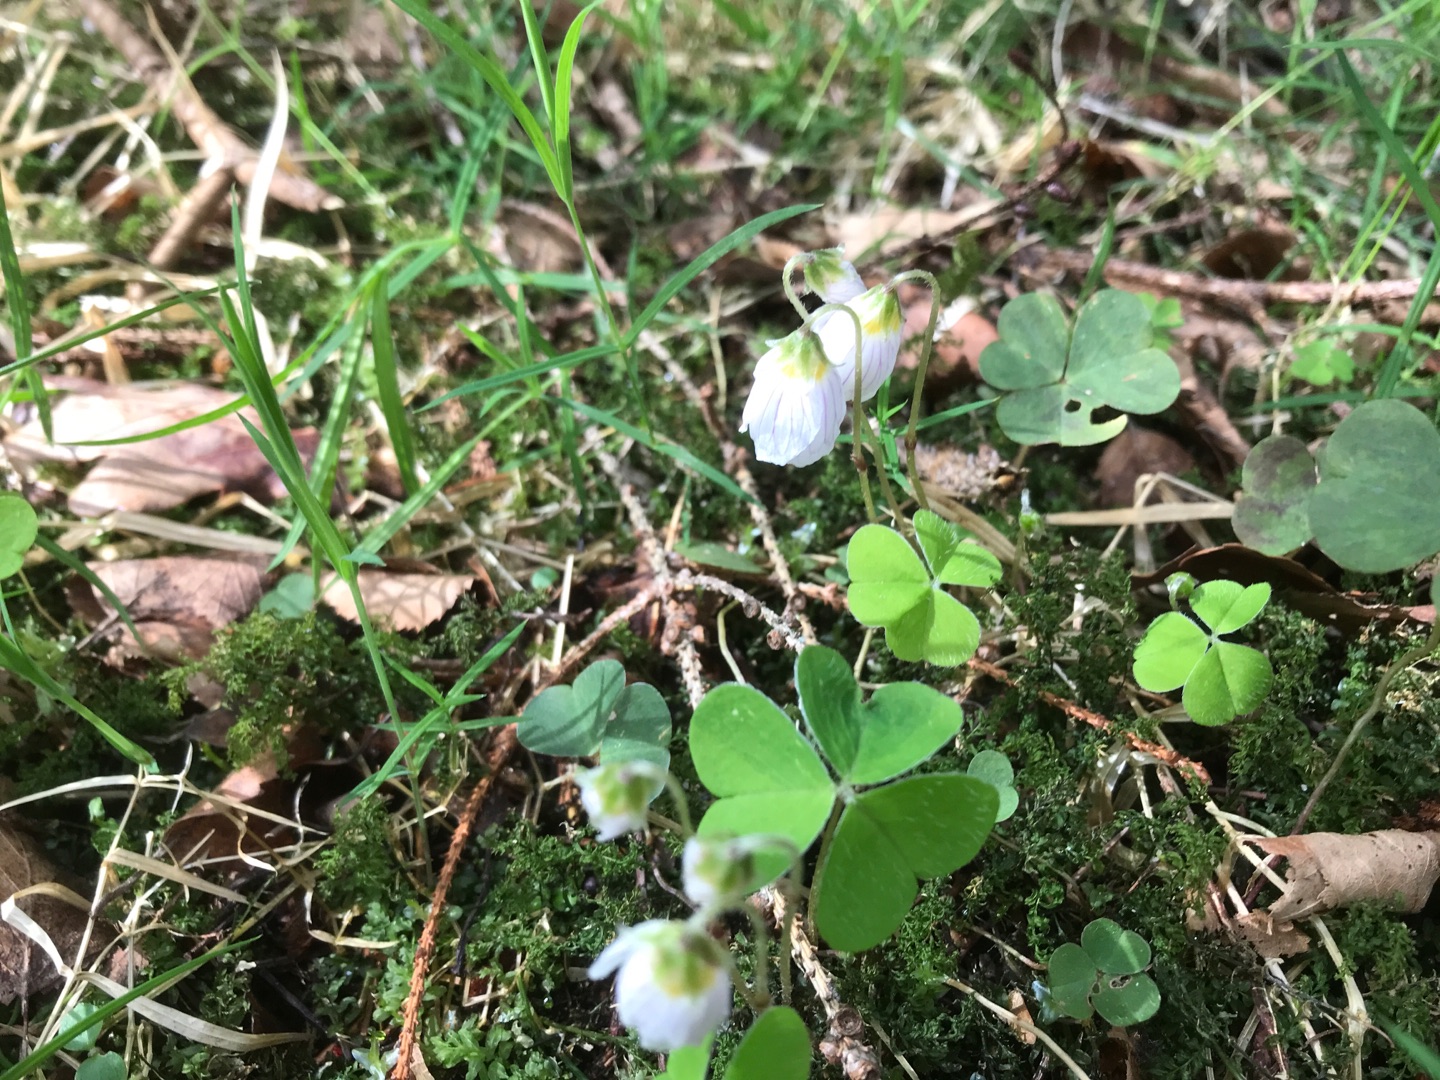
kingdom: Plantae
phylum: Tracheophyta
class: Magnoliopsida
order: Oxalidales
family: Oxalidaceae
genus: Oxalis
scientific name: Oxalis acetosella
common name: Skovsyre
